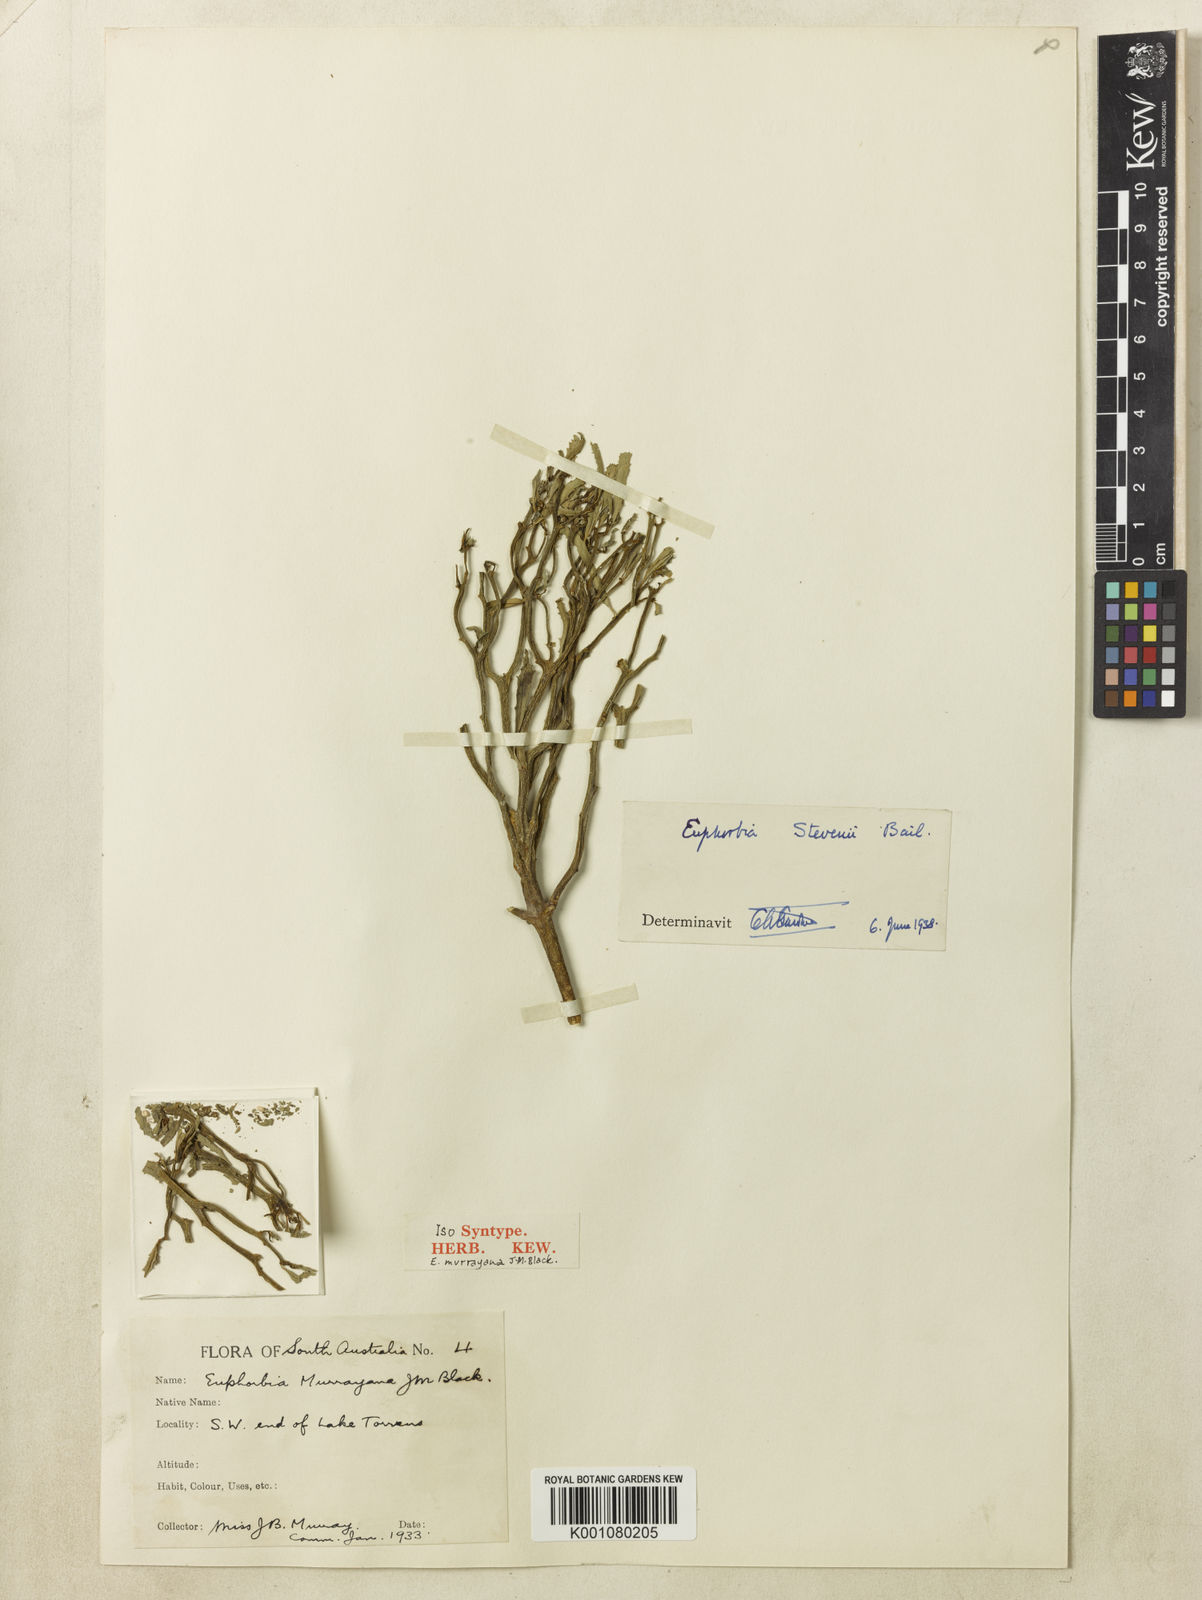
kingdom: Plantae
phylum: Tracheophyta
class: Magnoliopsida
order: Malpighiales
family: Euphorbiaceae
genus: Euphorbia
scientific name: Euphorbia stevenii
